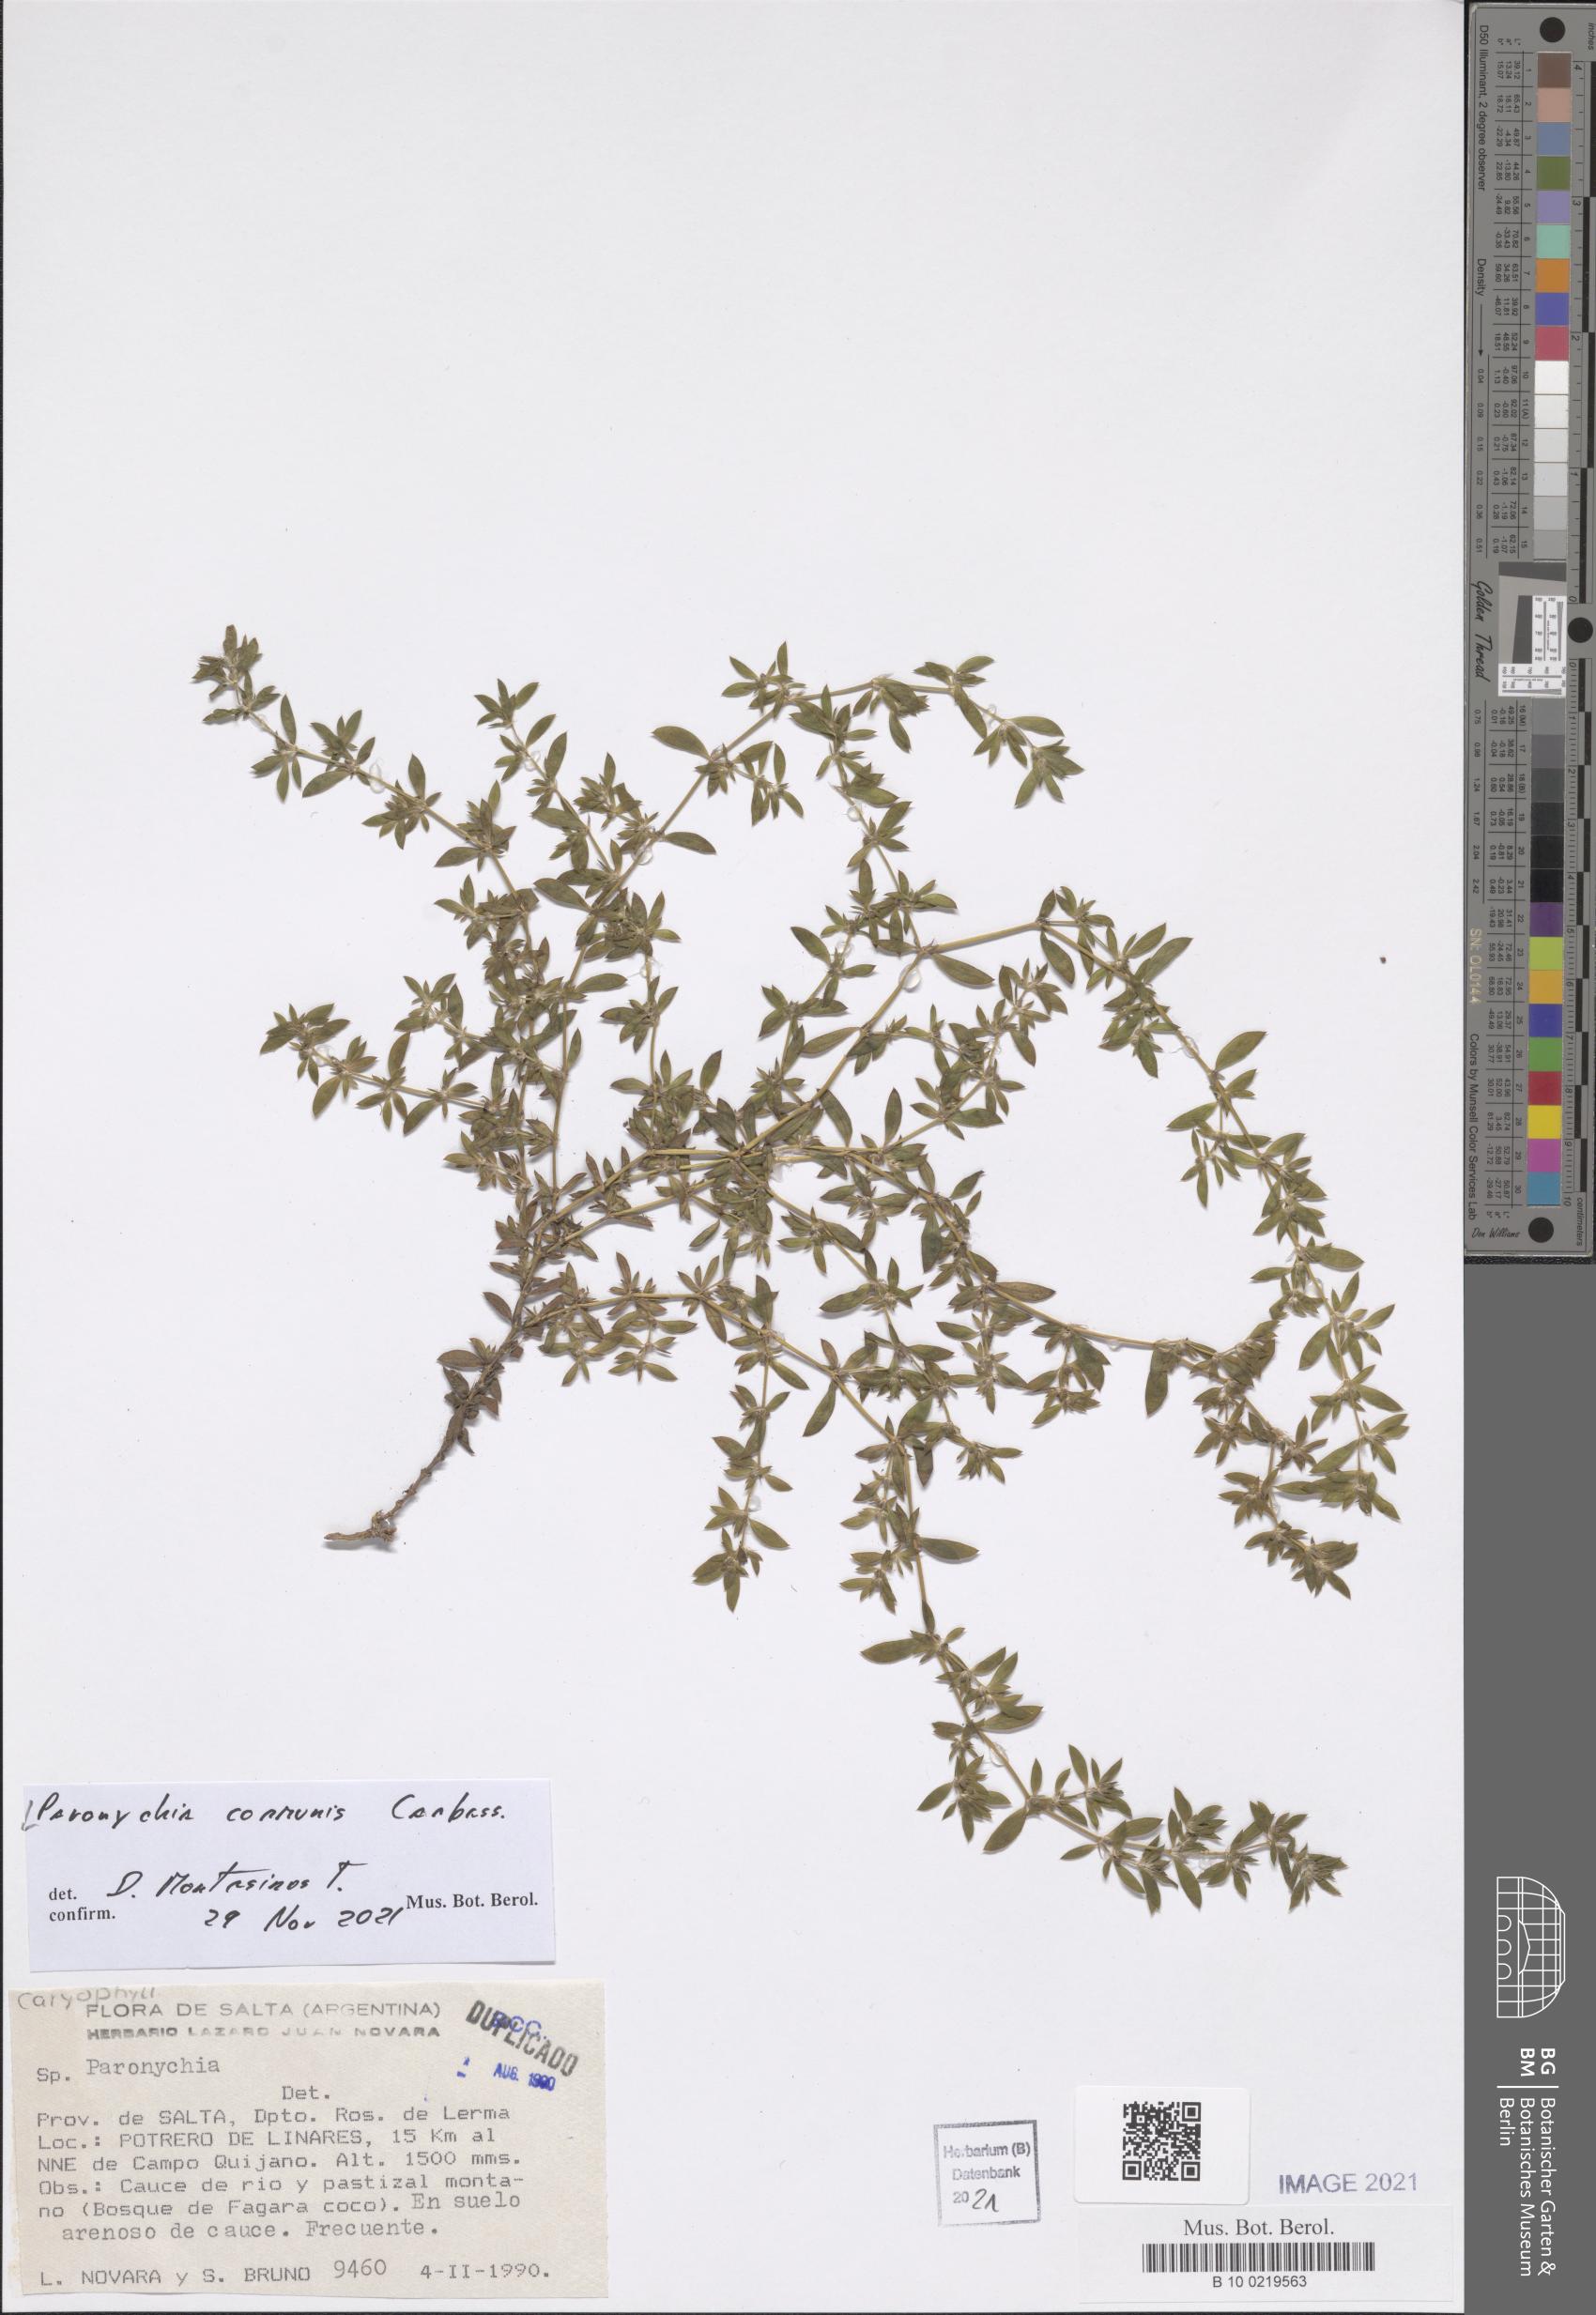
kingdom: Plantae
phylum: Tracheophyta
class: Magnoliopsida
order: Caryophyllales
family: Caryophyllaceae
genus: Paronychia
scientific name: Paronychia communis
